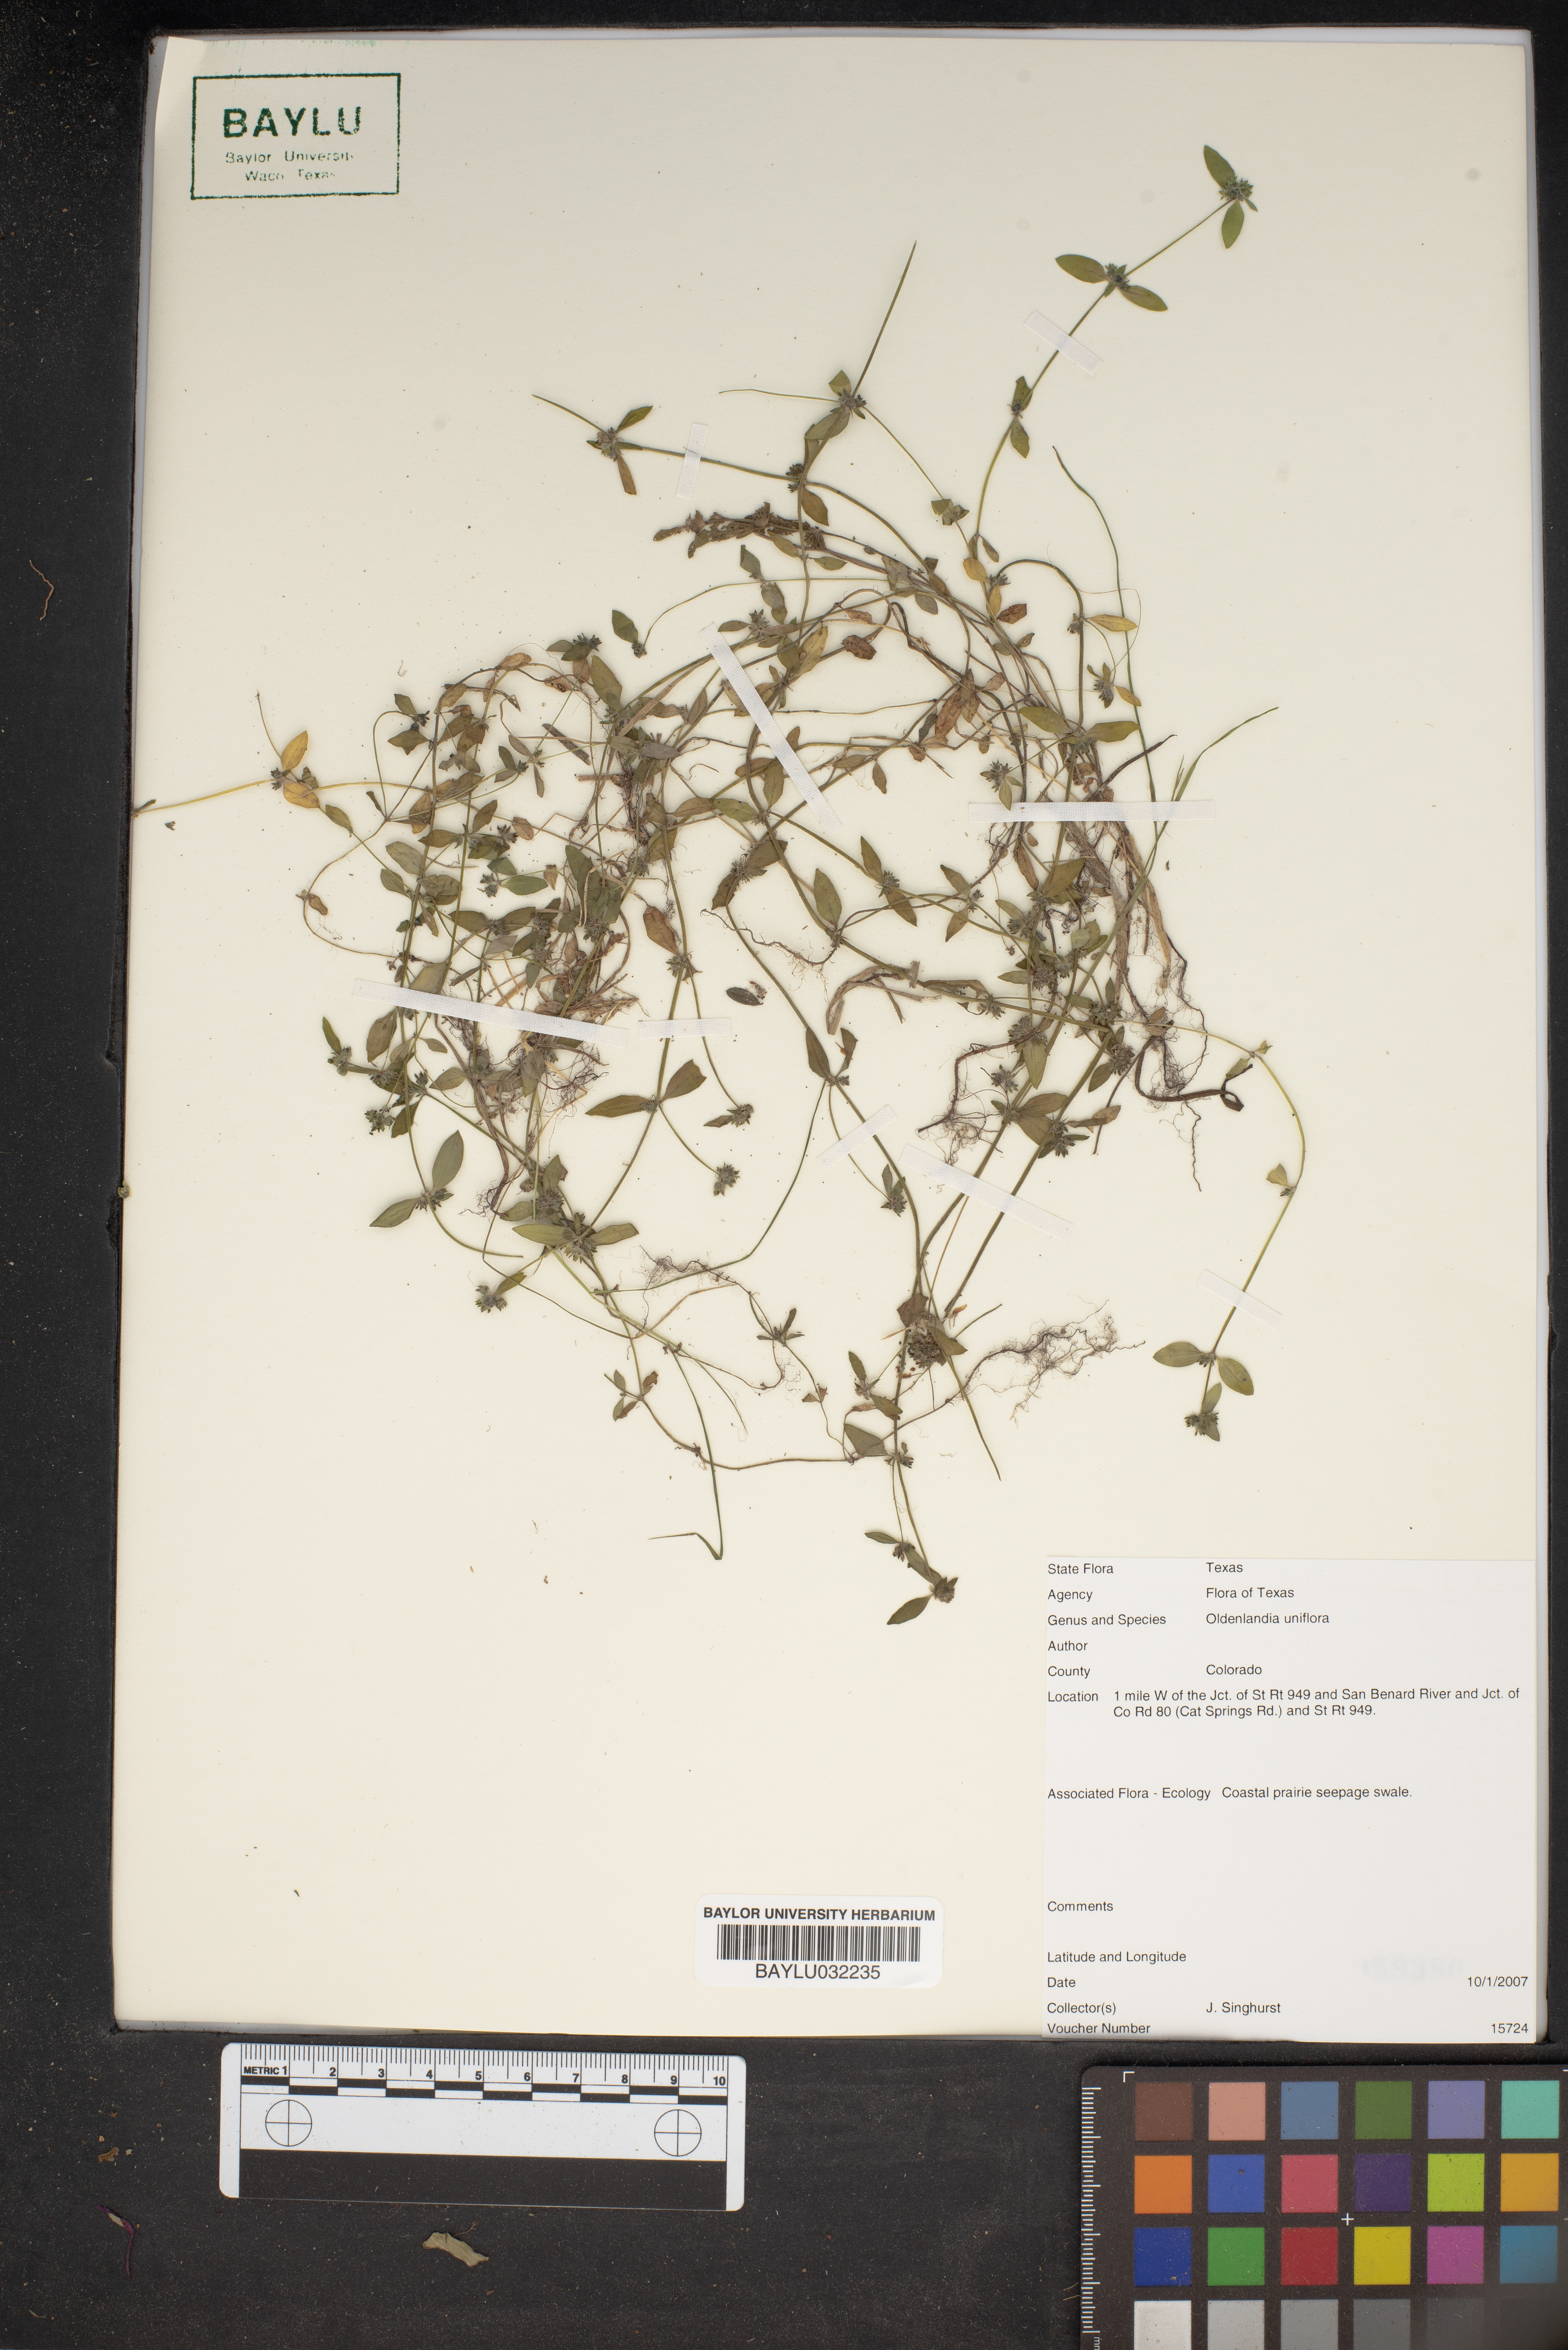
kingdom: Plantae
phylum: Tracheophyta
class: Magnoliopsida
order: Gentianales
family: Rubiaceae
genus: Edrastima
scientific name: Edrastima uniflora
